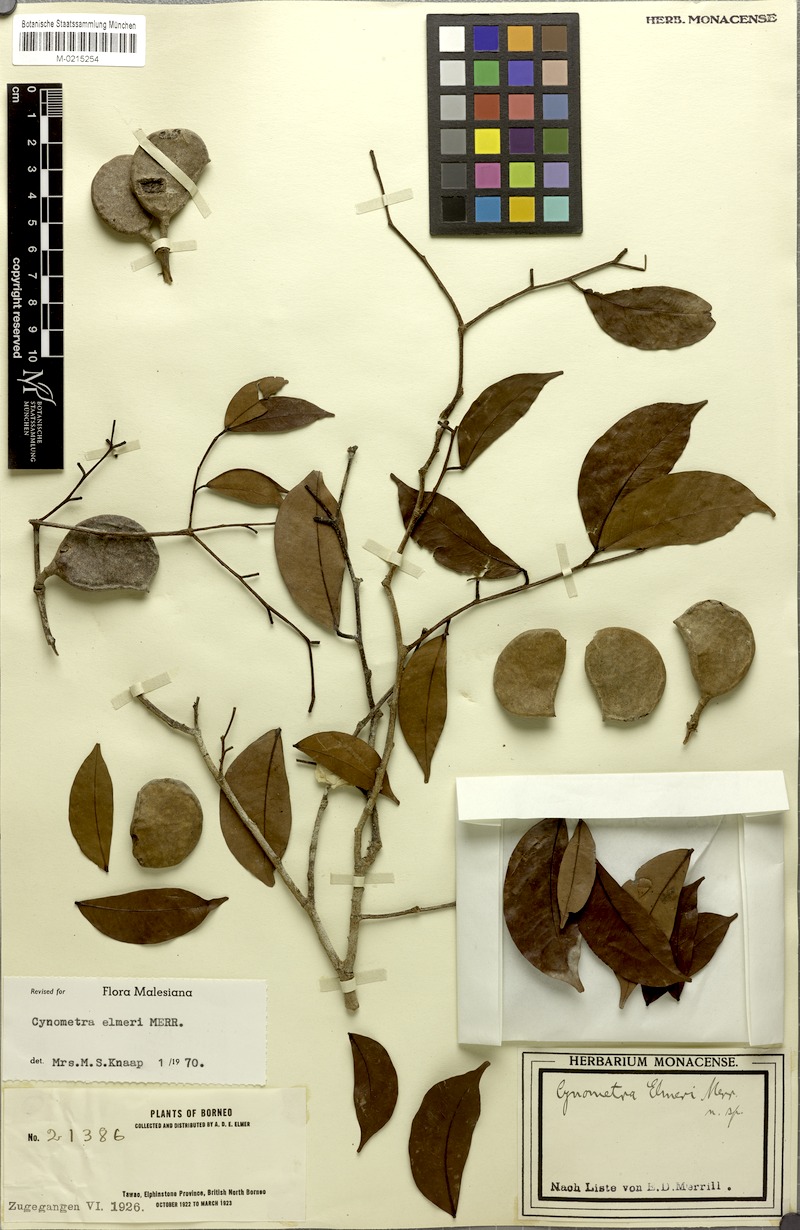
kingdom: Plantae
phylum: Tracheophyta
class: Magnoliopsida
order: Fabales
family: Fabaceae
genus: Cynometra
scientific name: Cynometra elmeri
